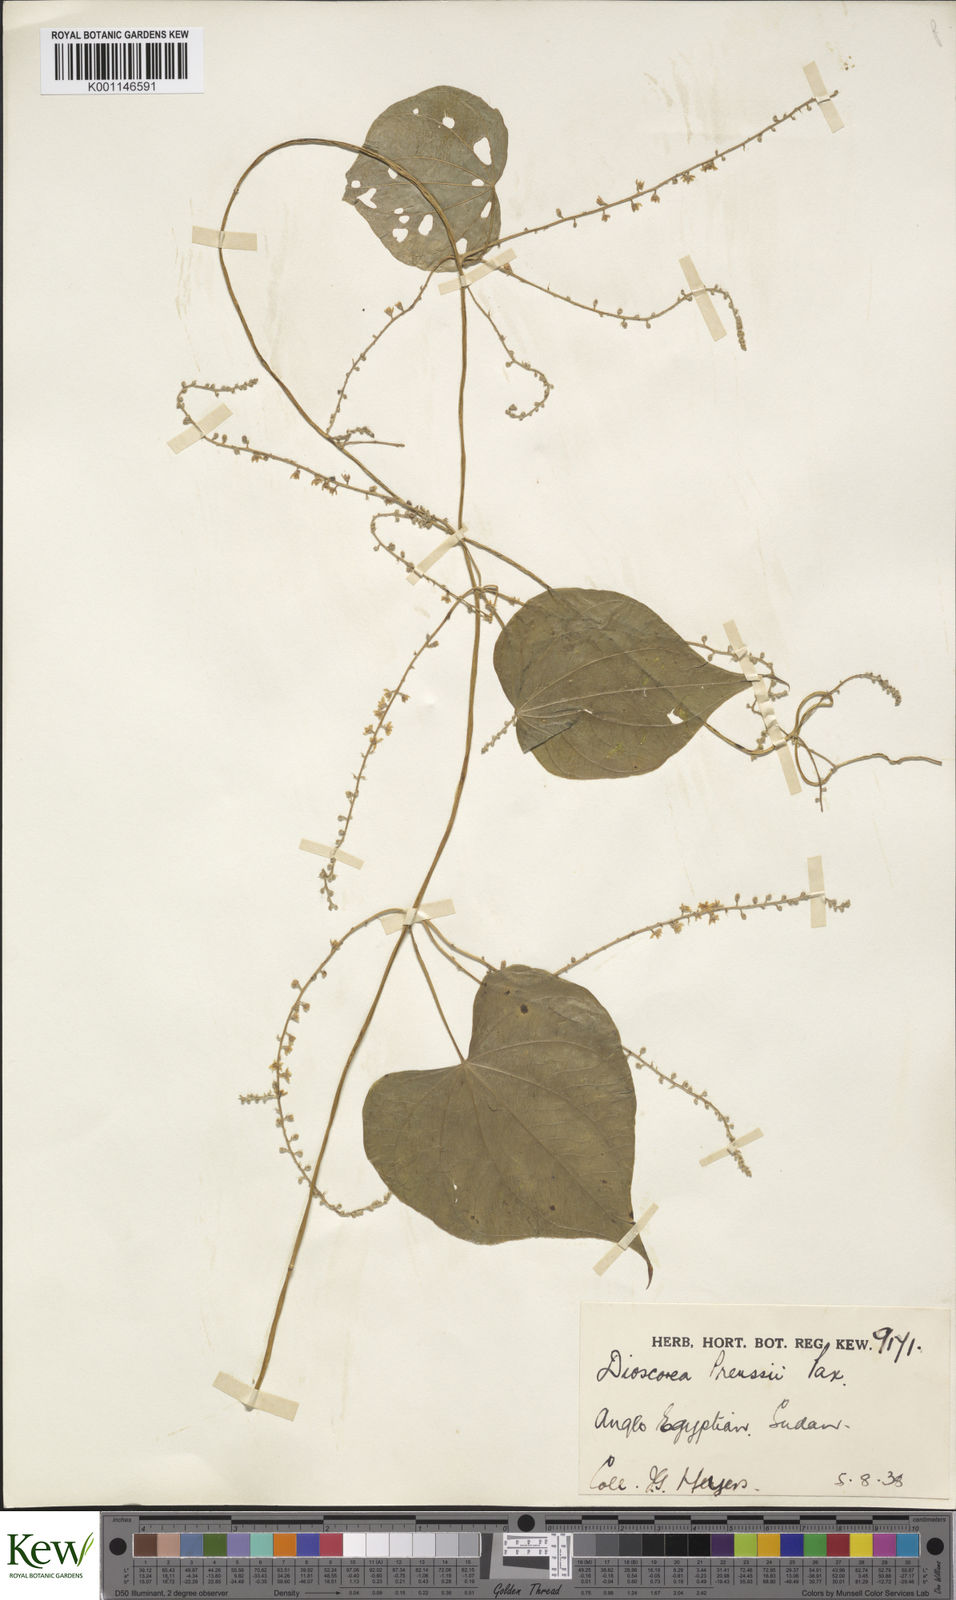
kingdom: Plantae
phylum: Tracheophyta
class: Liliopsida
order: Dioscoreales
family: Dioscoreaceae
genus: Dioscorea
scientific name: Dioscorea preussii
